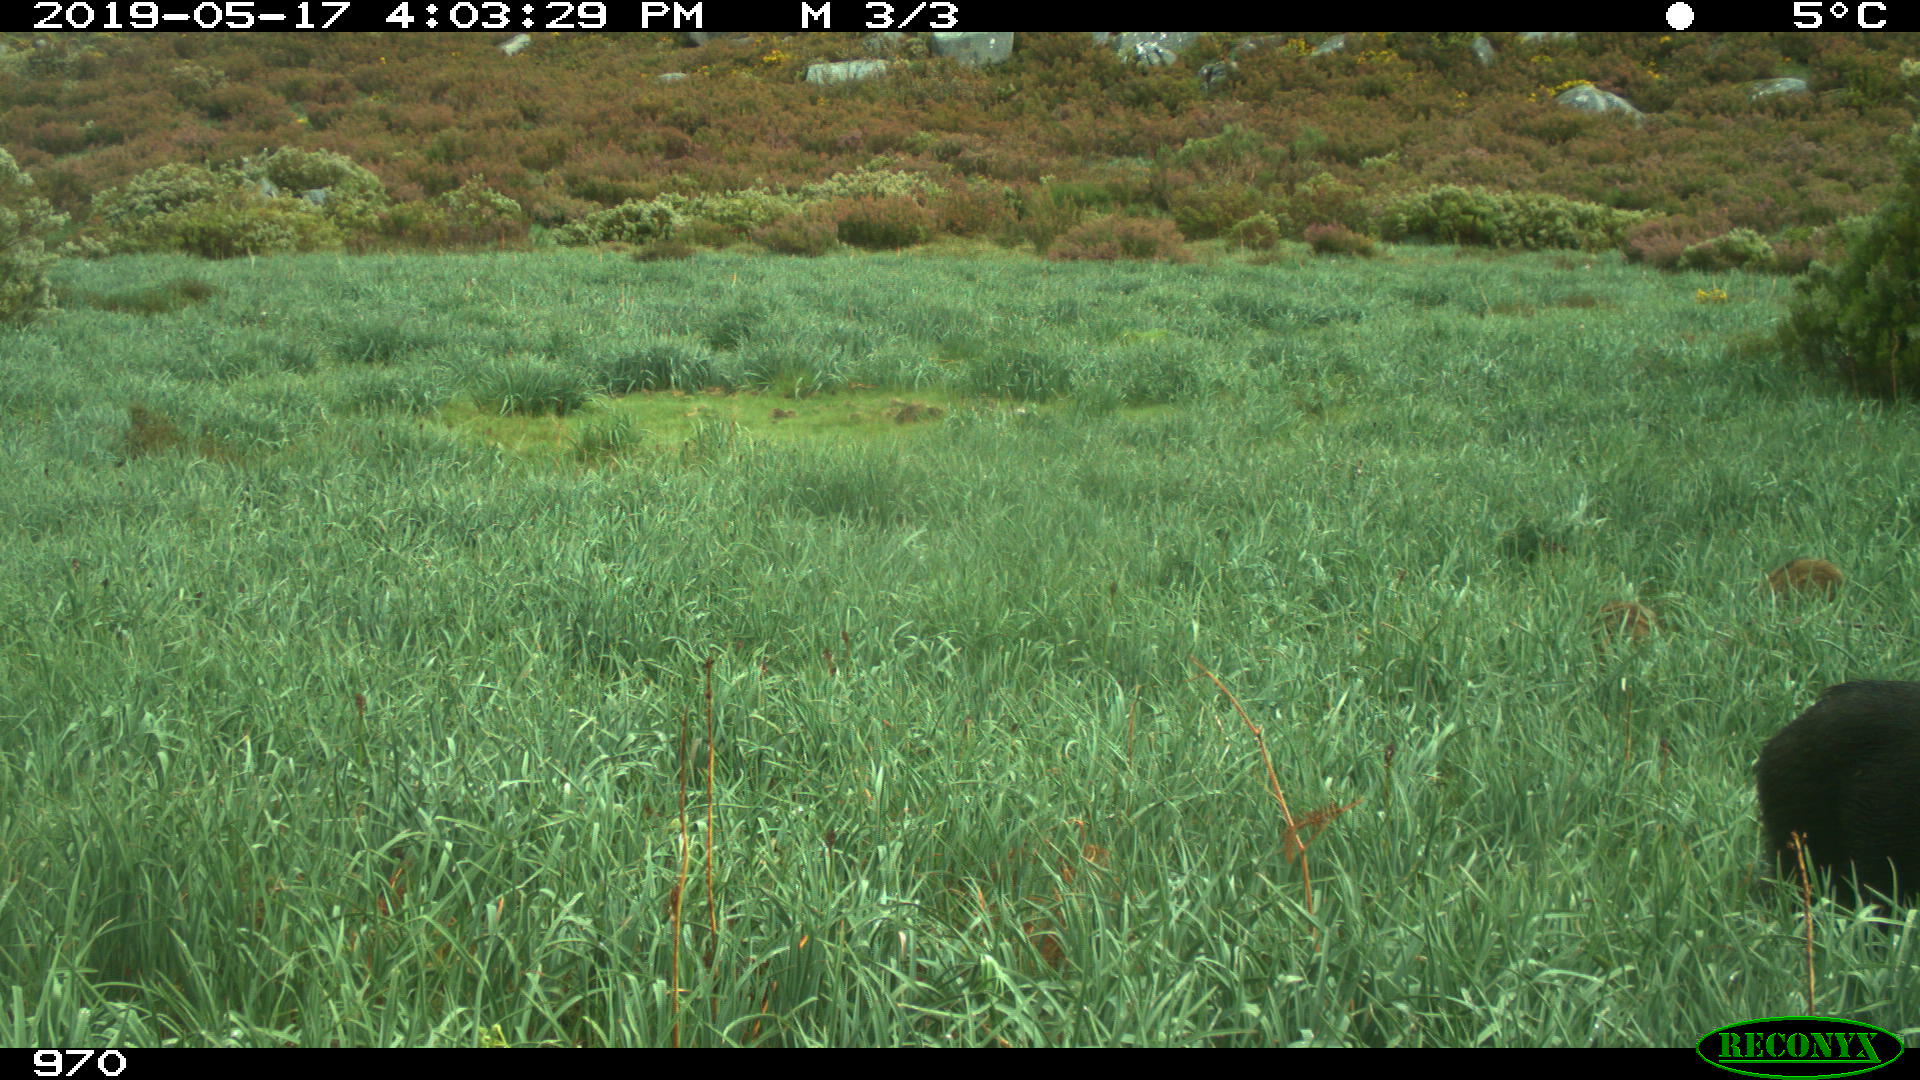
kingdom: Animalia
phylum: Chordata
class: Mammalia
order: Artiodactyla
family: Suidae
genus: Sus
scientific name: Sus scrofa
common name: Wild boar
